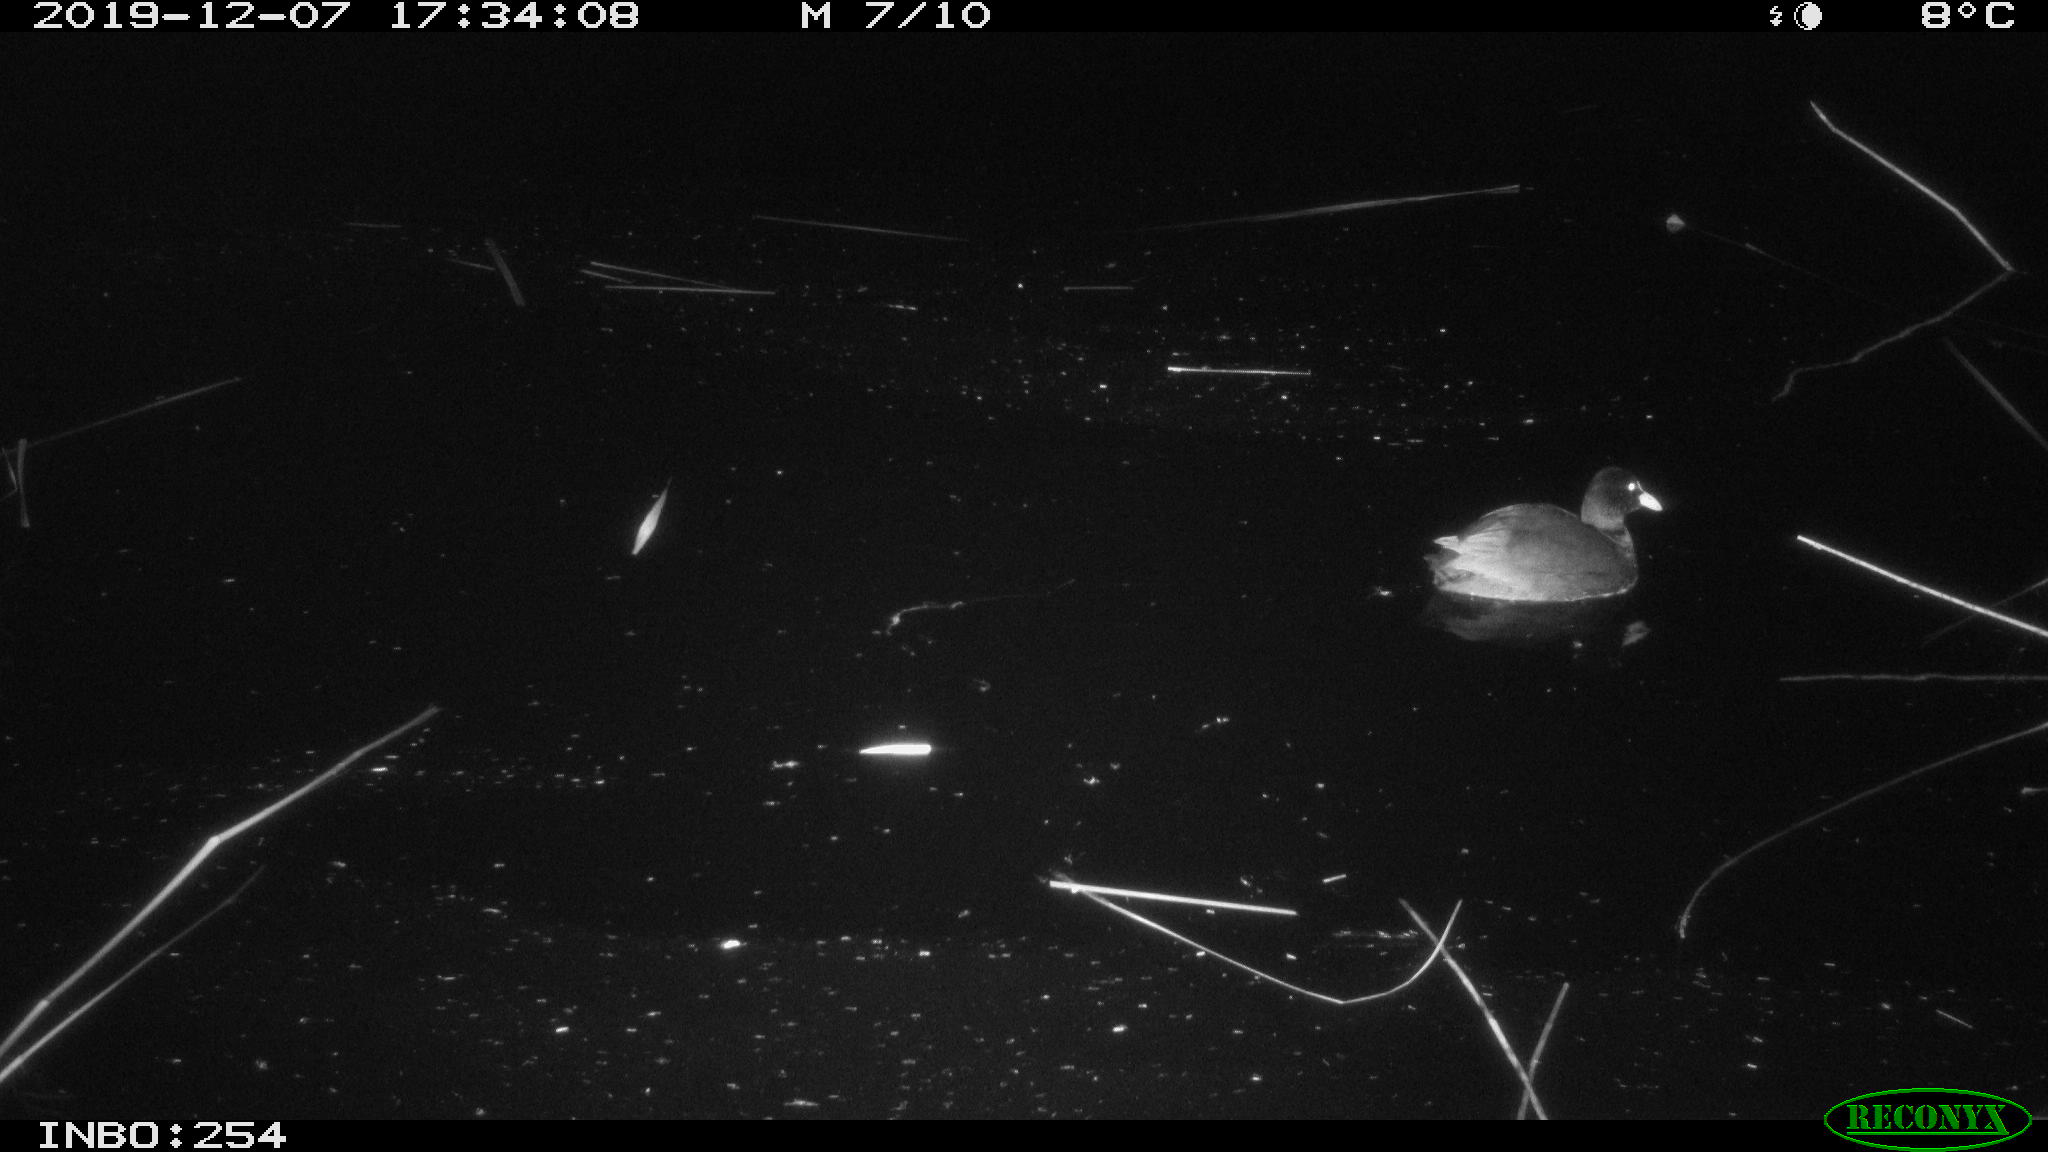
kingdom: Animalia
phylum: Chordata
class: Aves
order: Gruiformes
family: Rallidae
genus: Fulica
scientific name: Fulica atra
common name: Eurasian coot
